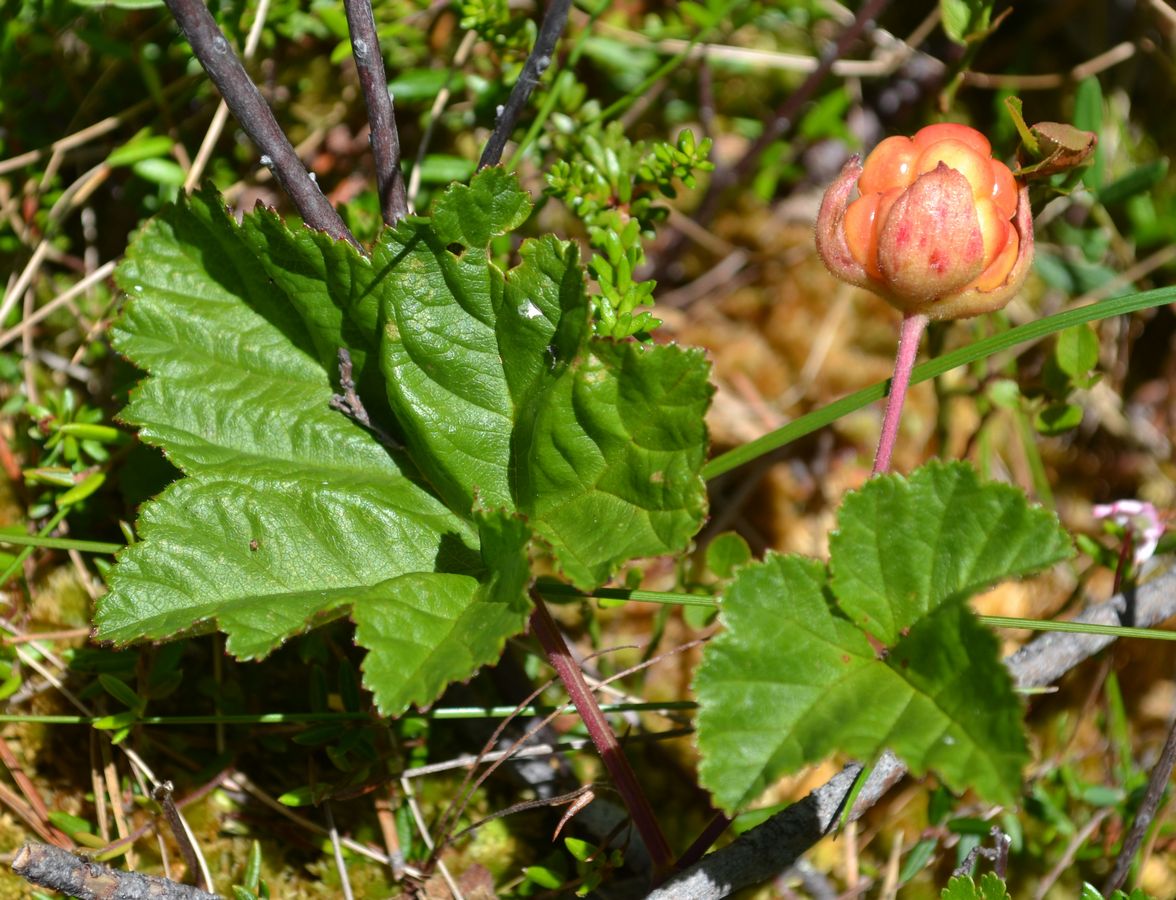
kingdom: Plantae
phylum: Tracheophyta
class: Magnoliopsida
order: Rosales
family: Rosaceae
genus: Rubus
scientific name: Rubus chamaemorus
